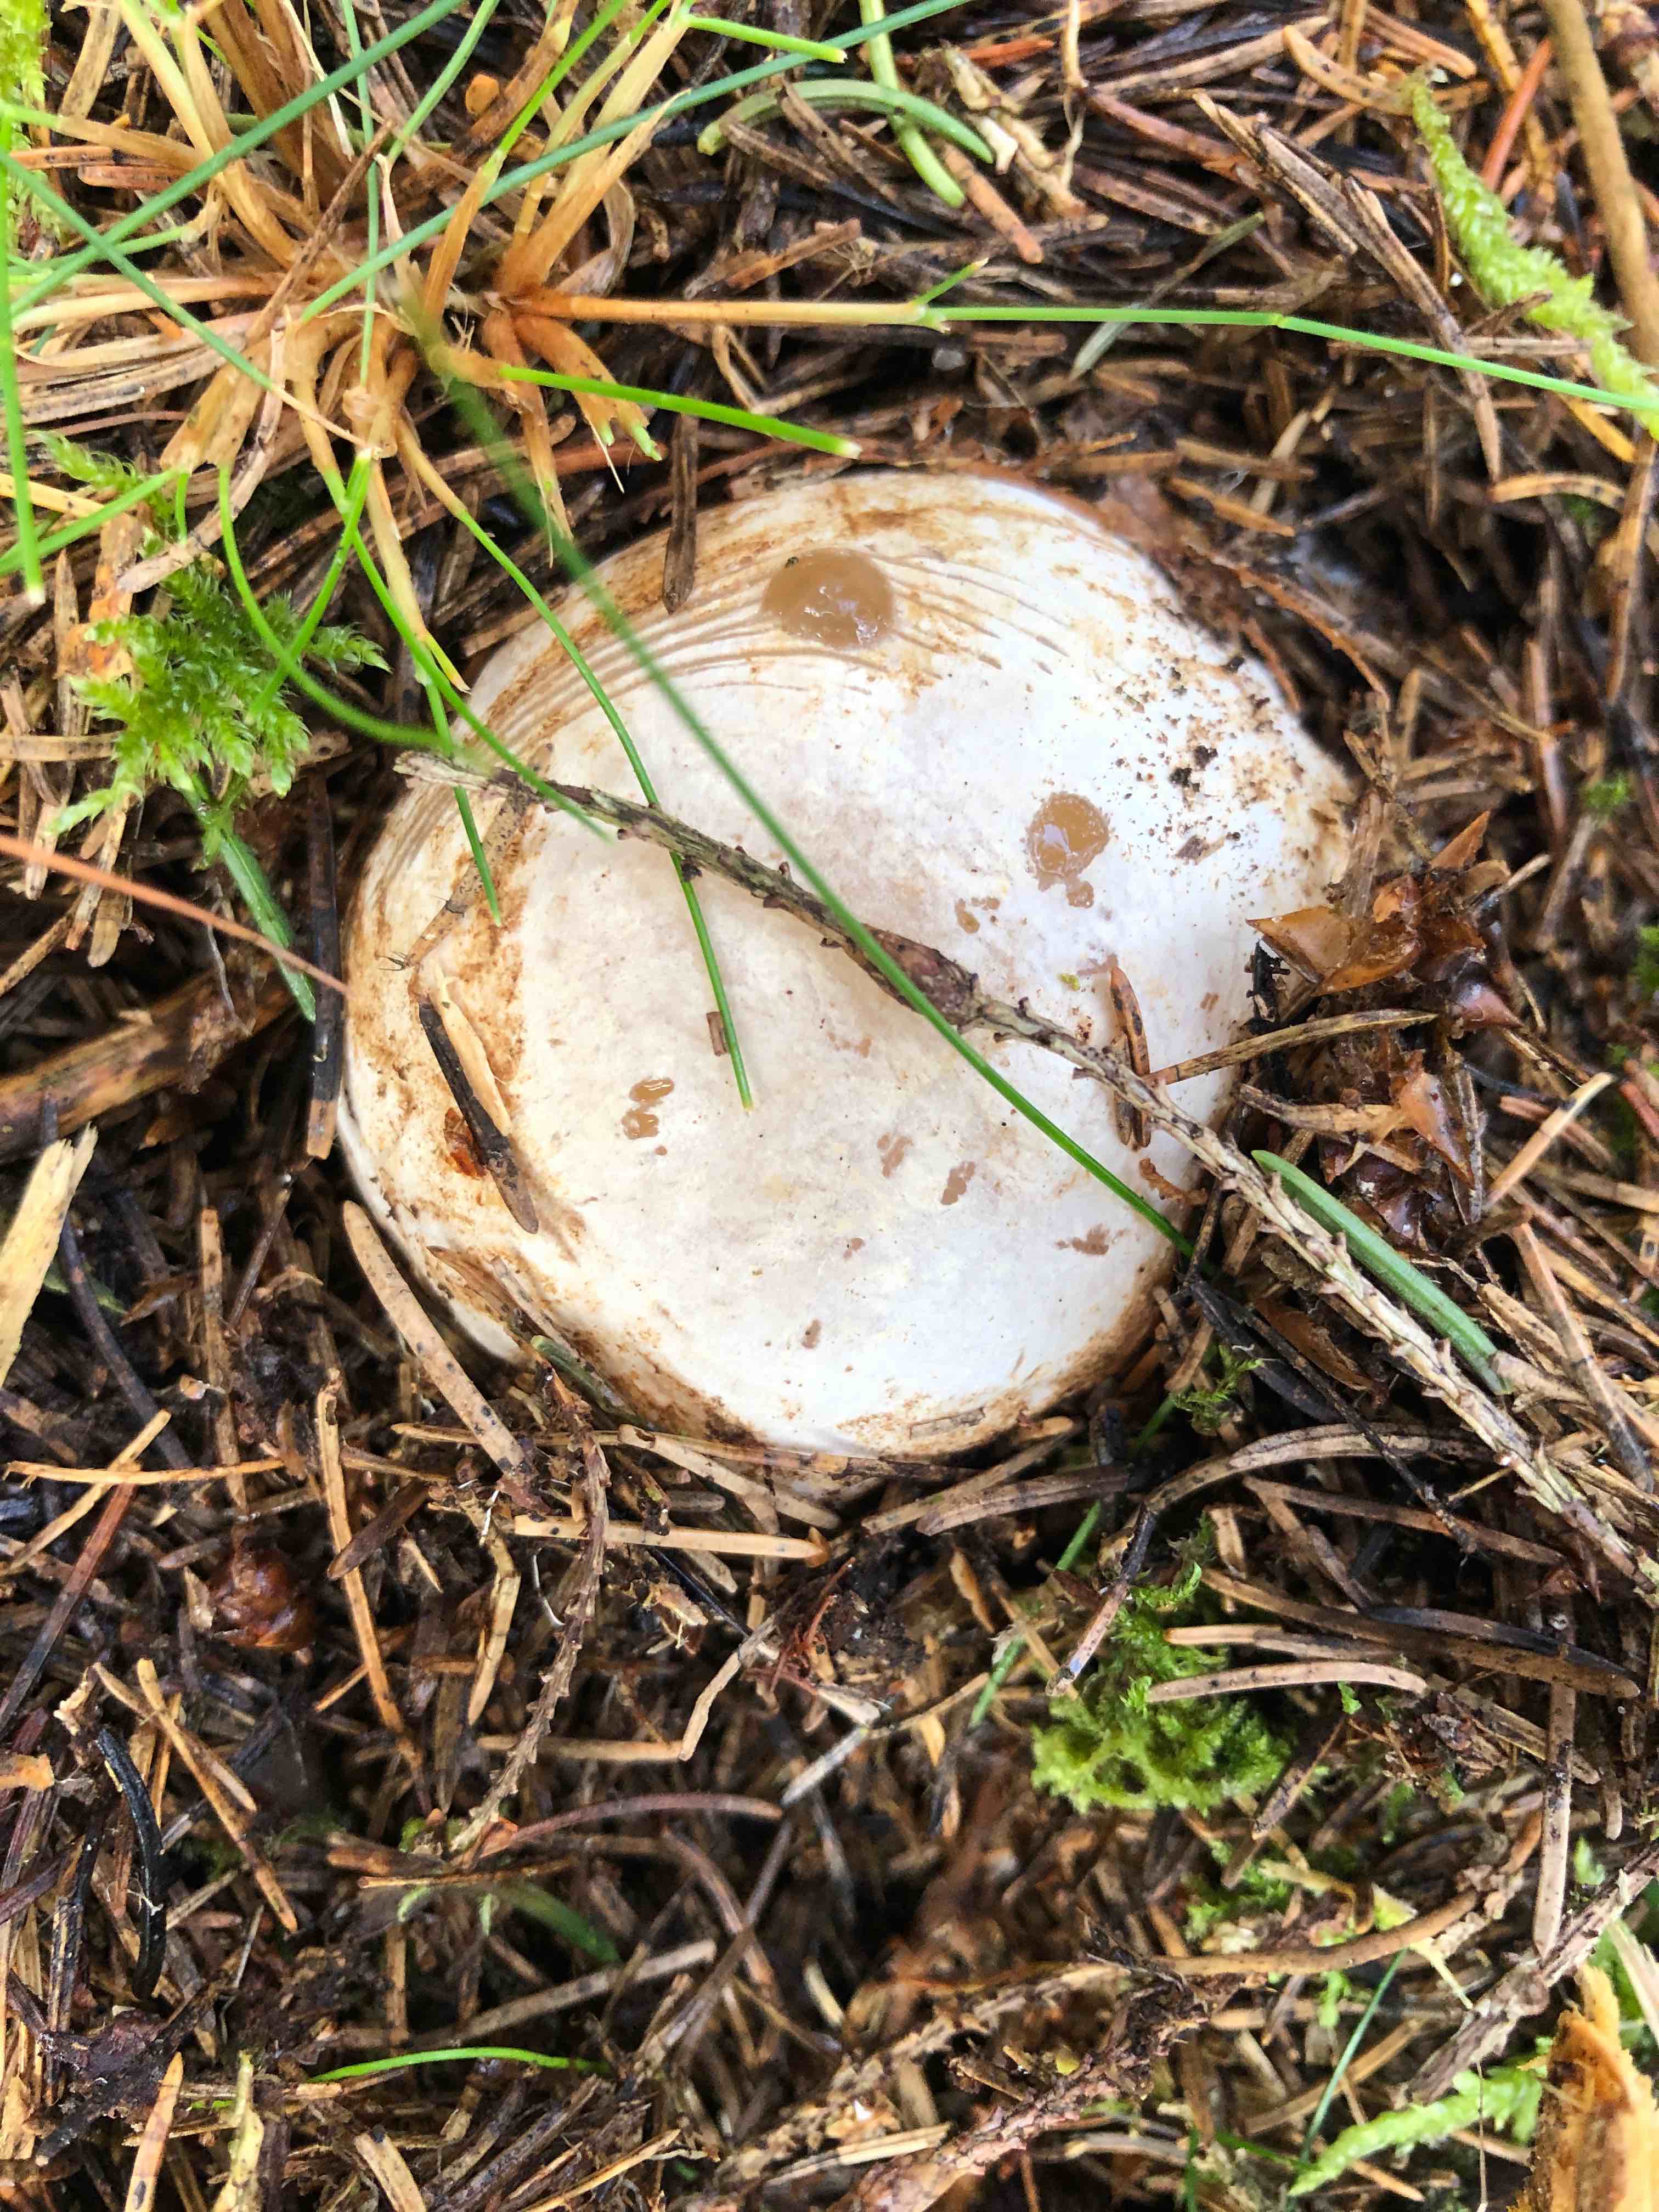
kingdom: Fungi
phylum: Basidiomycota
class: Agaricomycetes
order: Phallales
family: Phallaceae
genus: Phallus
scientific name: Phallus impudicus
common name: almindelig stinksvamp
